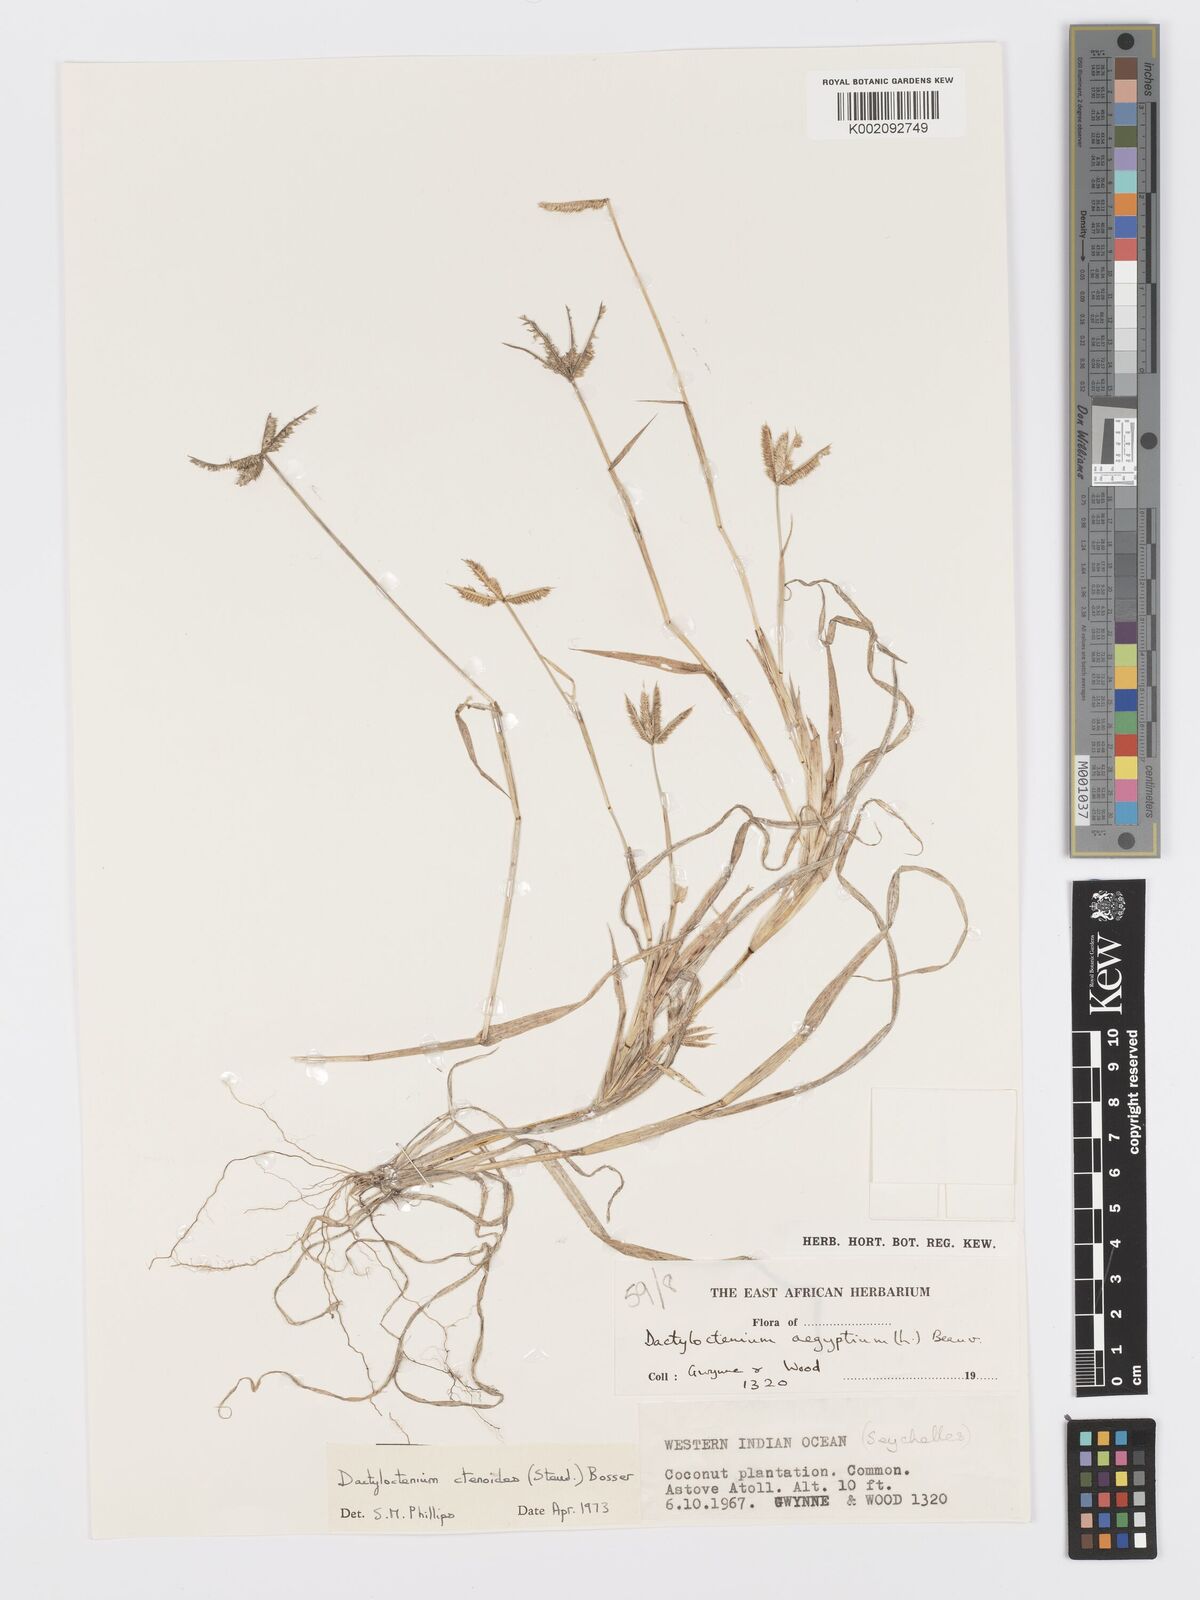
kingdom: Plantae
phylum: Tracheophyta
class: Liliopsida
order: Poales
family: Poaceae
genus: Dactyloctenium
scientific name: Dactyloctenium ctenoides
